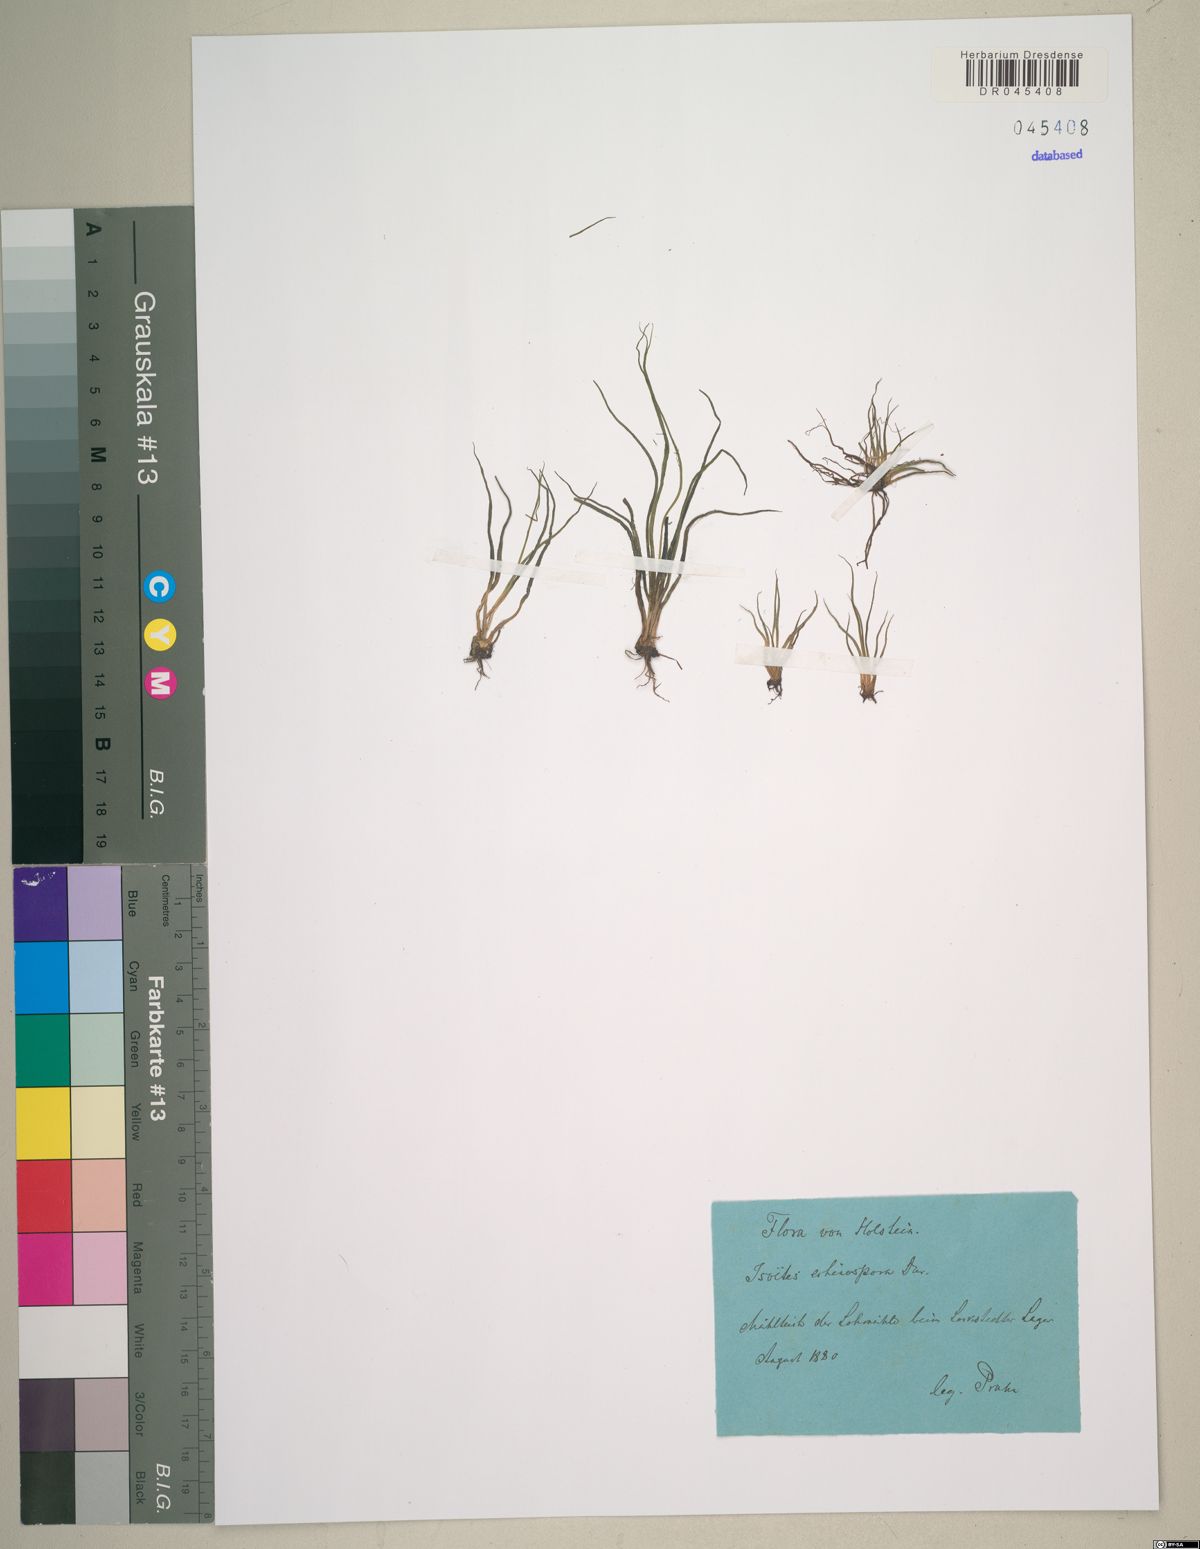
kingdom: Plantae
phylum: Tracheophyta
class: Lycopodiopsida
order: Isoetales
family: Isoetaceae
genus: Isoetes
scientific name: Isoetes echinospora
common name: Spring quillwort
